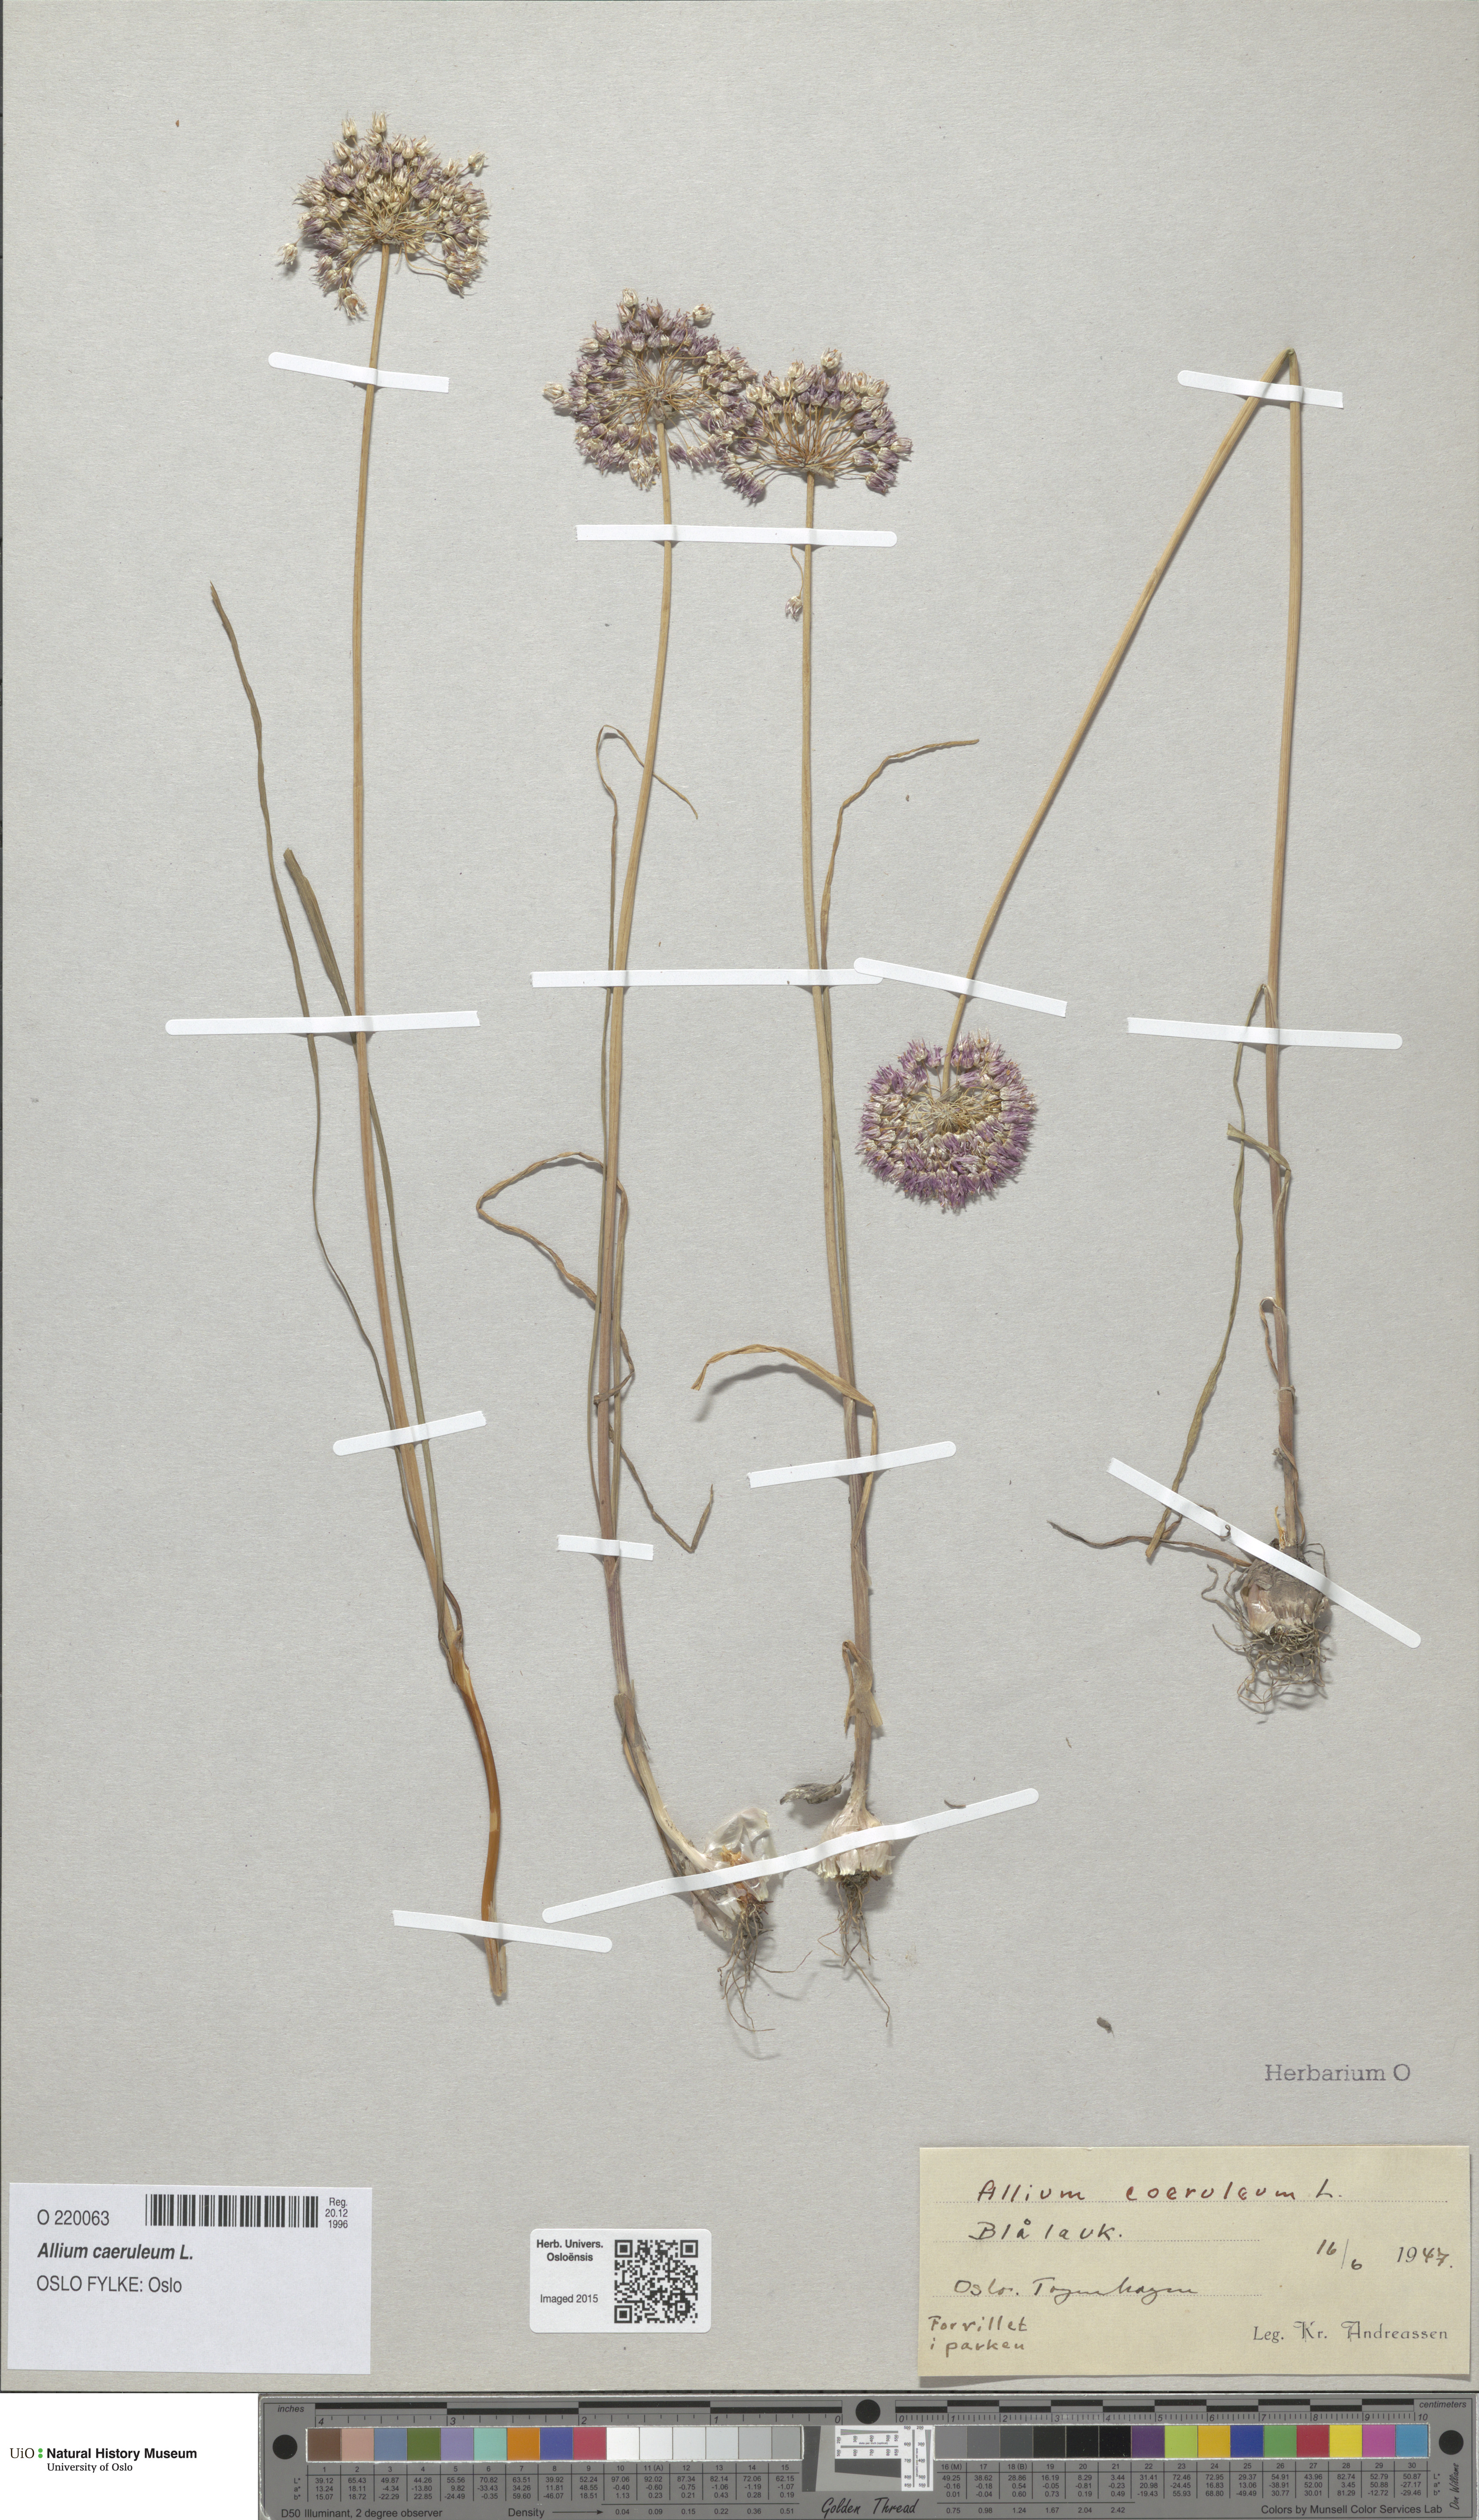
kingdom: Plantae
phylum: Tracheophyta
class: Liliopsida
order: Asparagales
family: Amaryllidaceae
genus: Allium
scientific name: Allium caeruleum
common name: Blue-of-the-heavens
